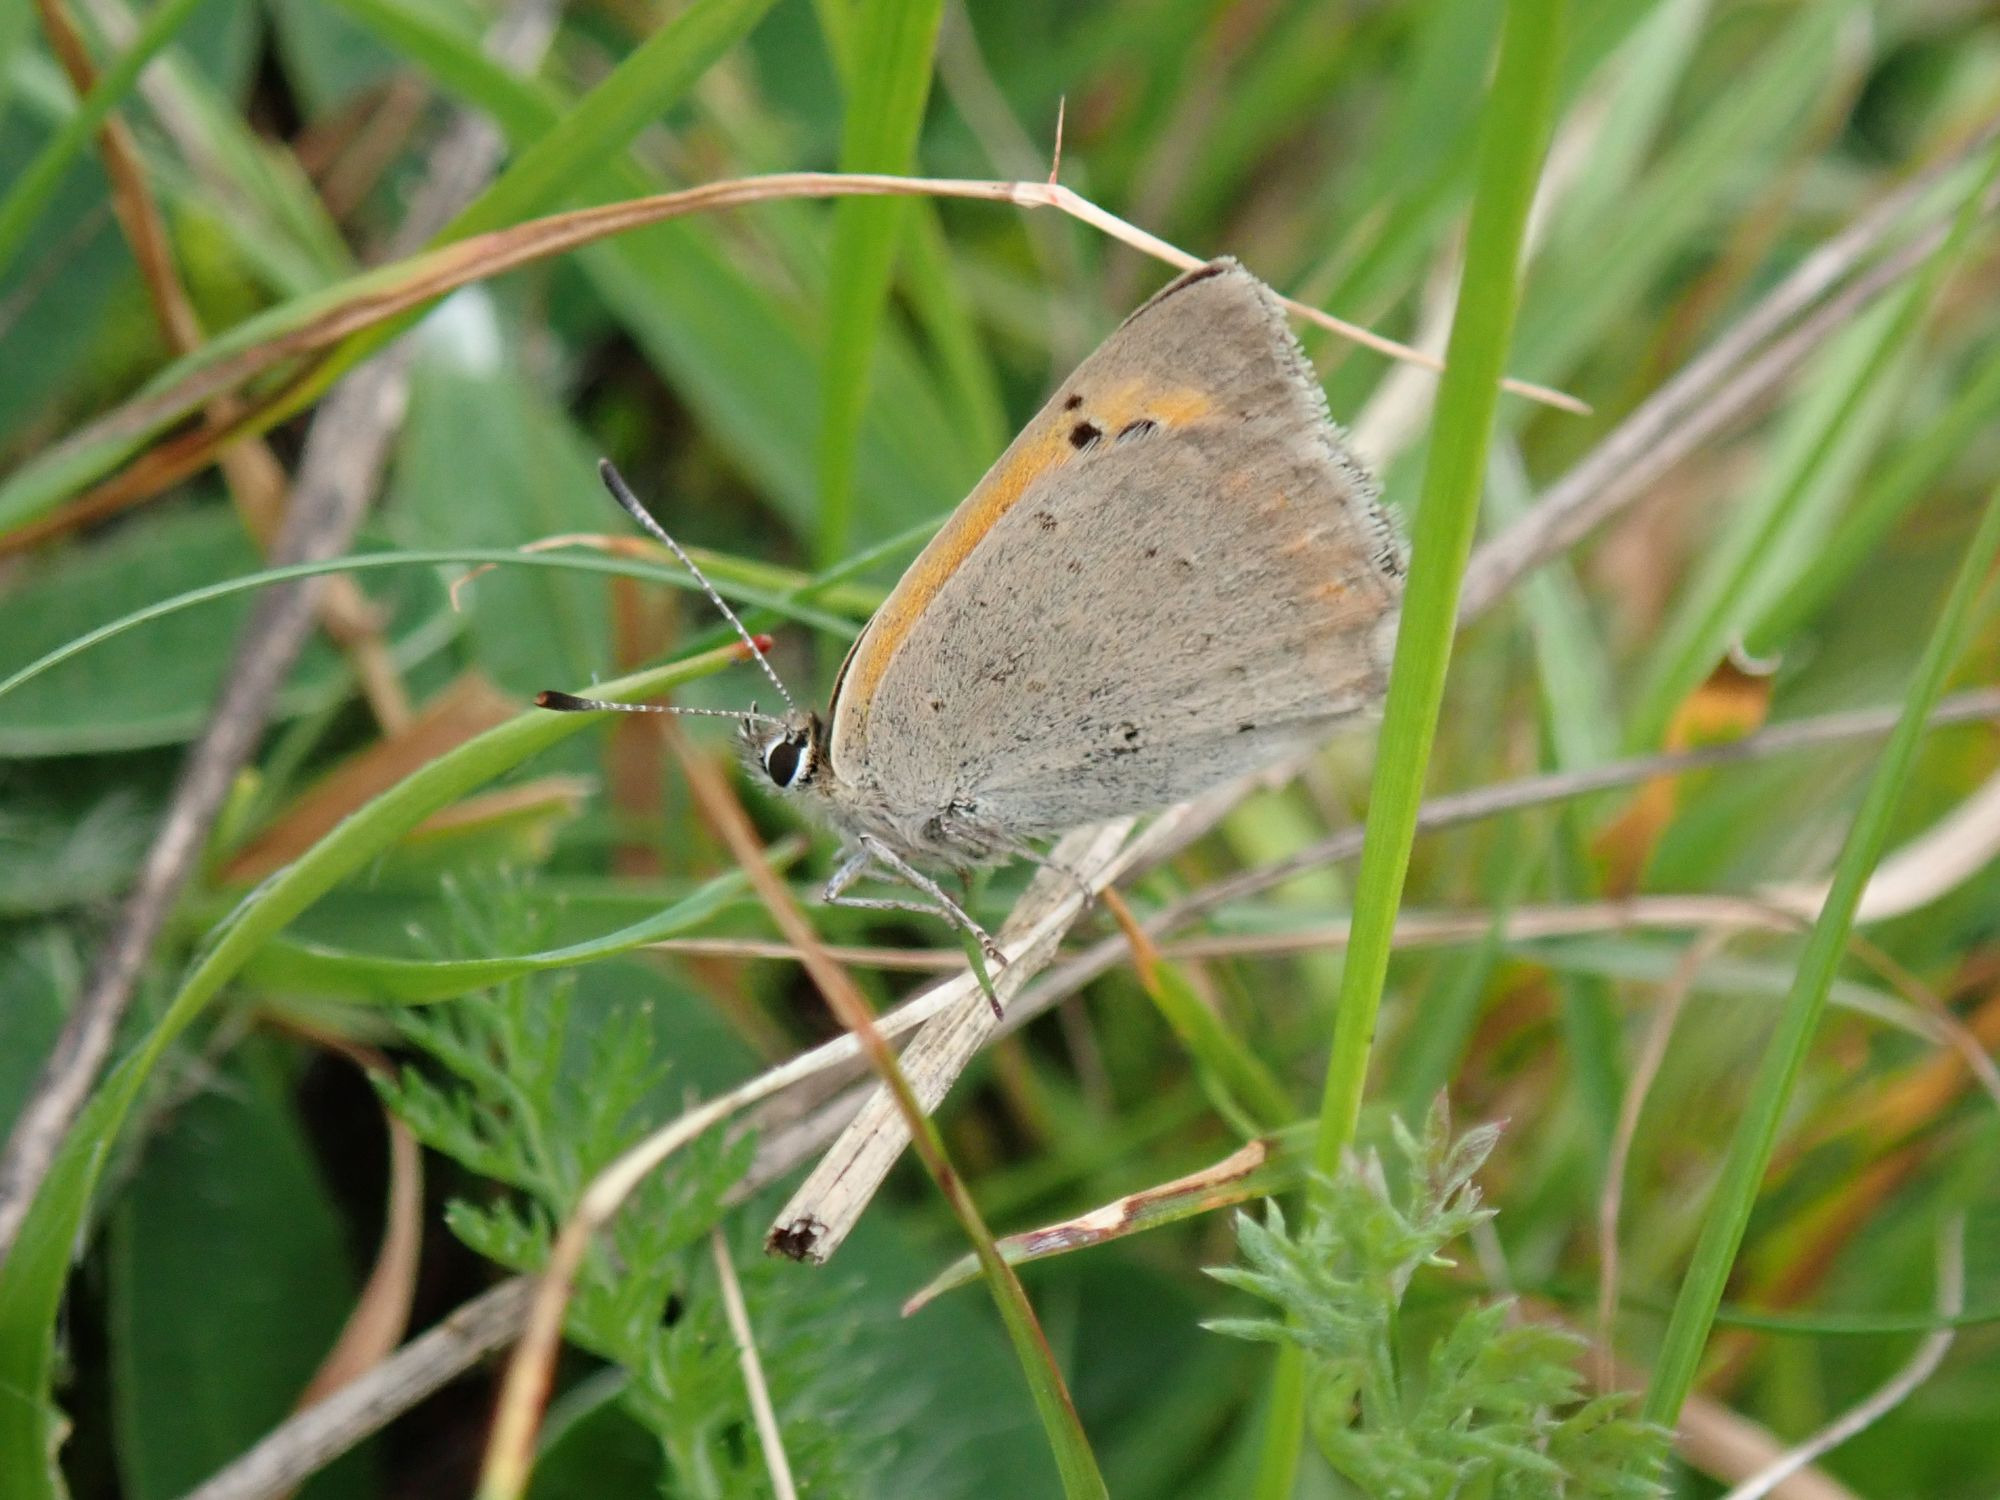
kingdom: Animalia
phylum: Arthropoda
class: Insecta
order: Lepidoptera
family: Lycaenidae
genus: Lycaena
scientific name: Lycaena phlaeas
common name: Lille ildfugl
